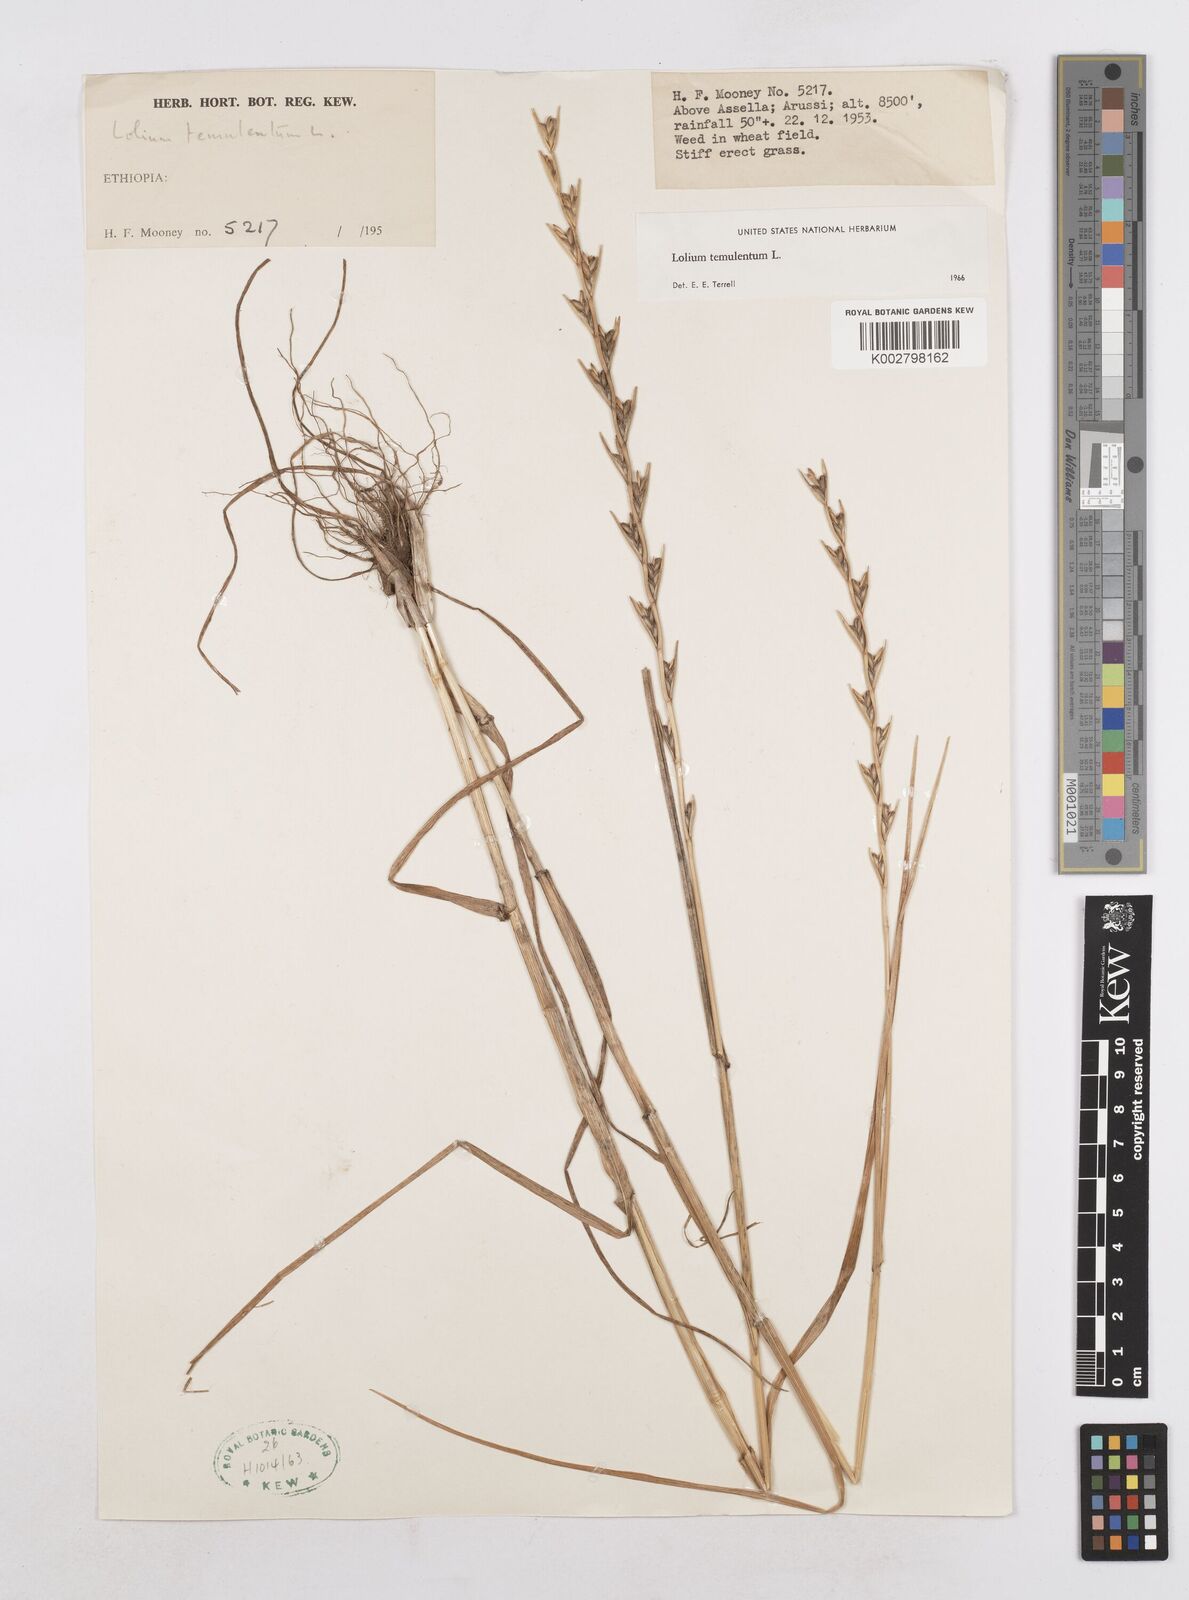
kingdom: Plantae
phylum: Tracheophyta
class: Liliopsida
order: Poales
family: Poaceae
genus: Lolium
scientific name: Lolium temulentum
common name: Darnel
